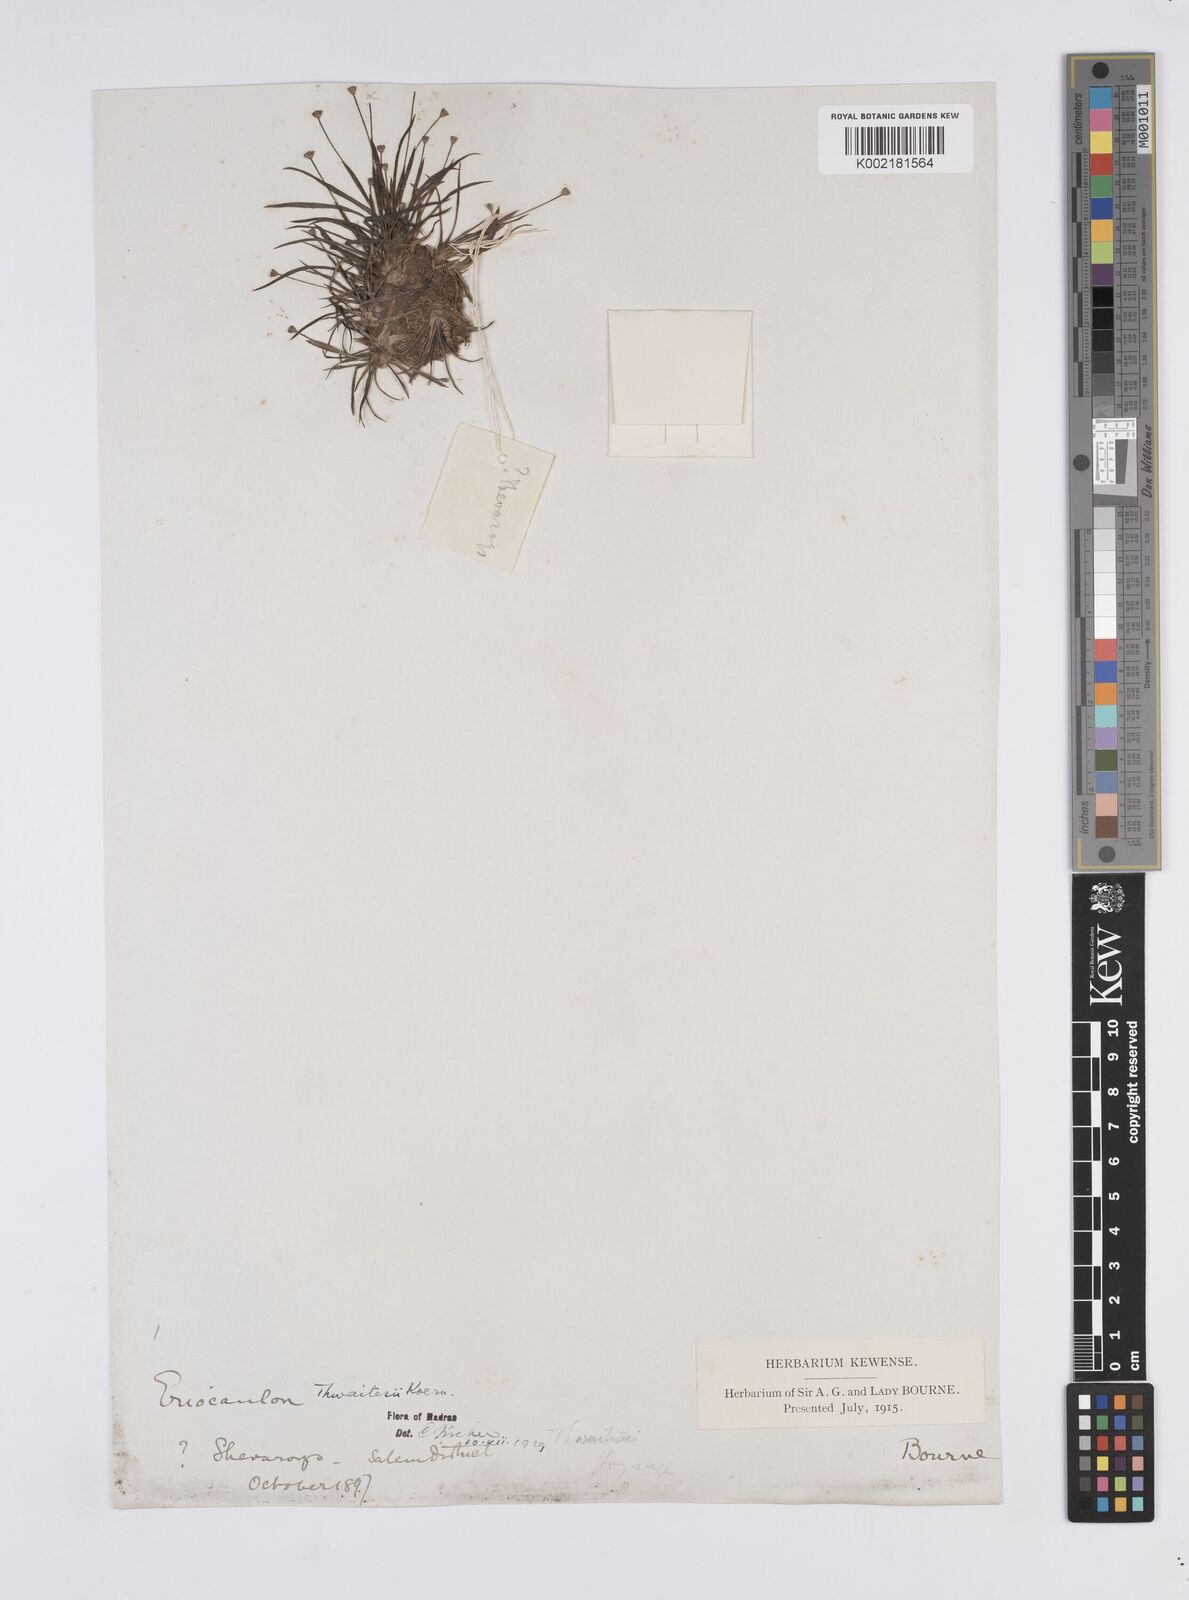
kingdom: Plantae
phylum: Tracheophyta
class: Liliopsida
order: Poales
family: Eriocaulaceae
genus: Eriocaulon
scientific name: Eriocaulon thwaitesii
